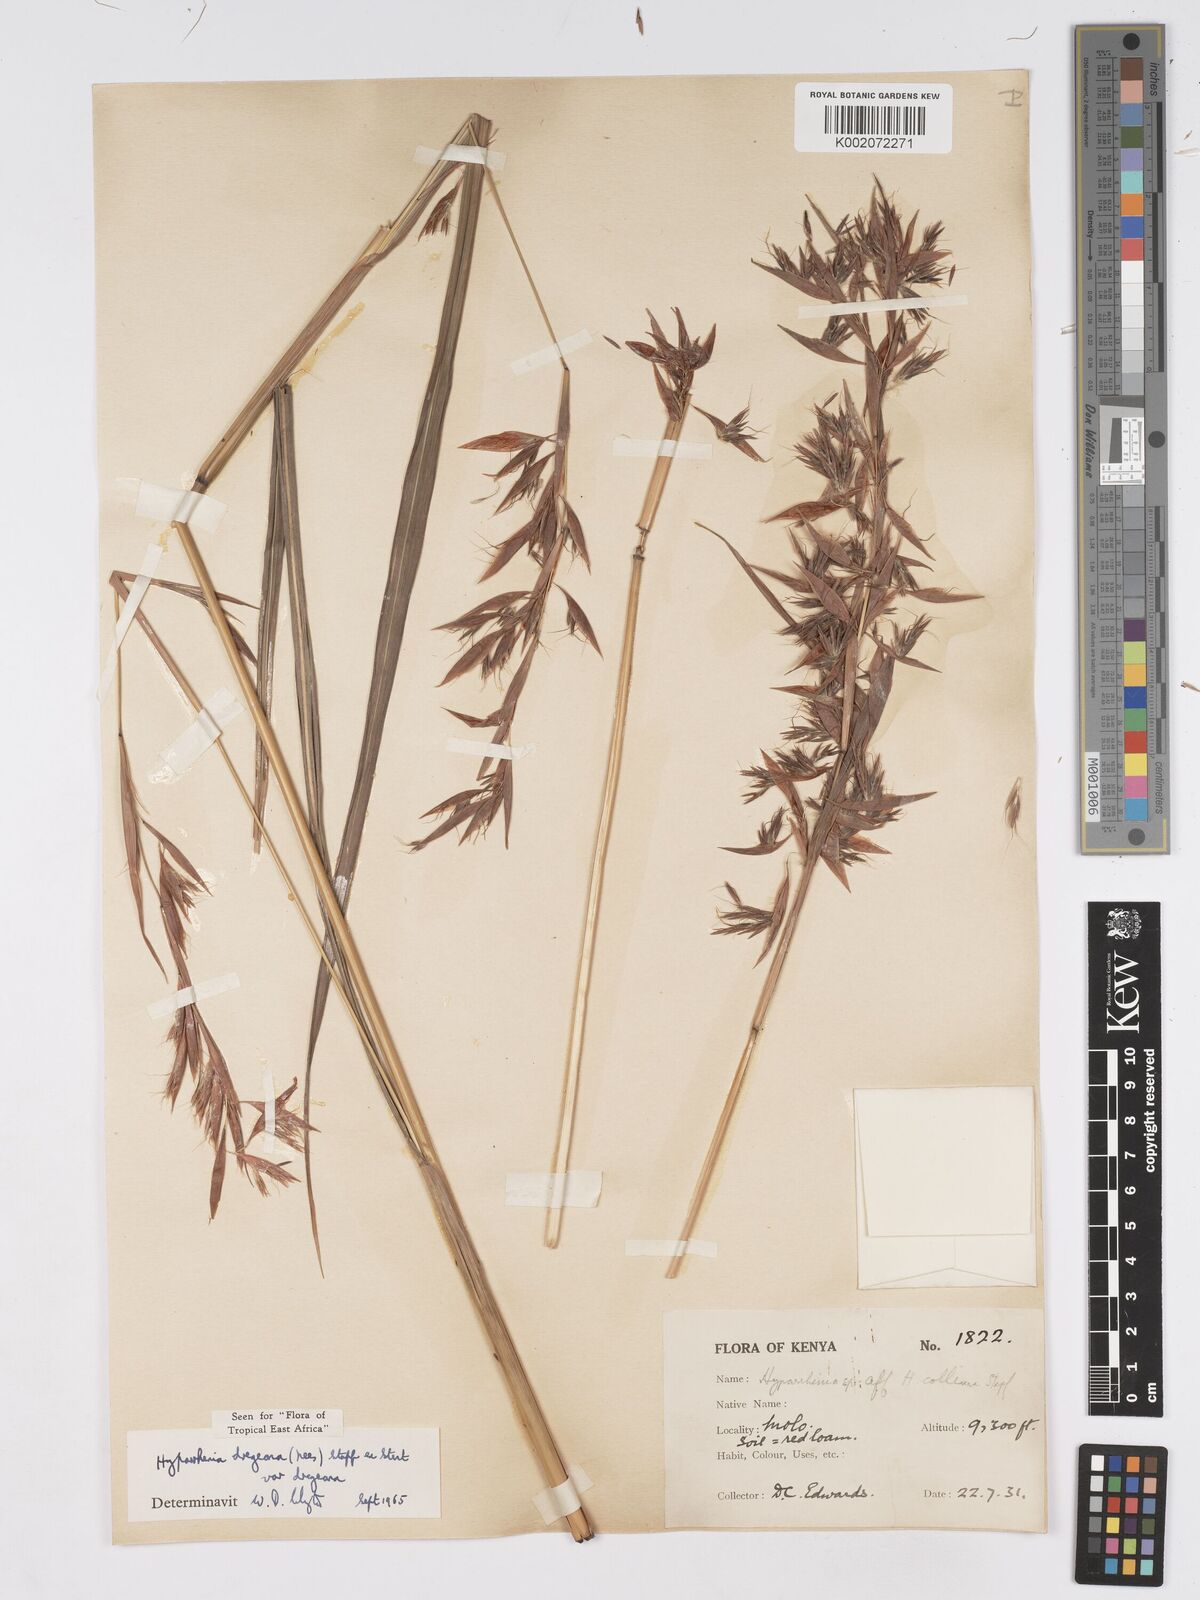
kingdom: Plantae
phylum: Tracheophyta
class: Liliopsida
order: Poales
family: Poaceae
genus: Hyparrhenia
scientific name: Hyparrhenia dregeana
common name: Silky thatching grass
